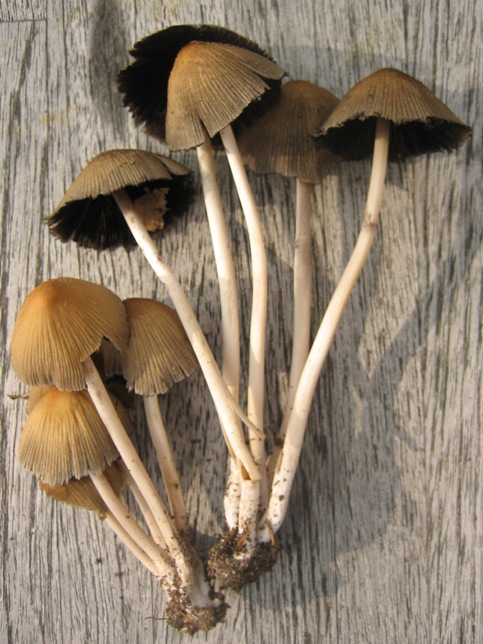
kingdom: Fungi
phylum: Basidiomycota
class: Agaricomycetes
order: Agaricales
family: Psathyrellaceae
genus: Coprinellus
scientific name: Coprinellus micaceus
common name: glimmer-blækhat
